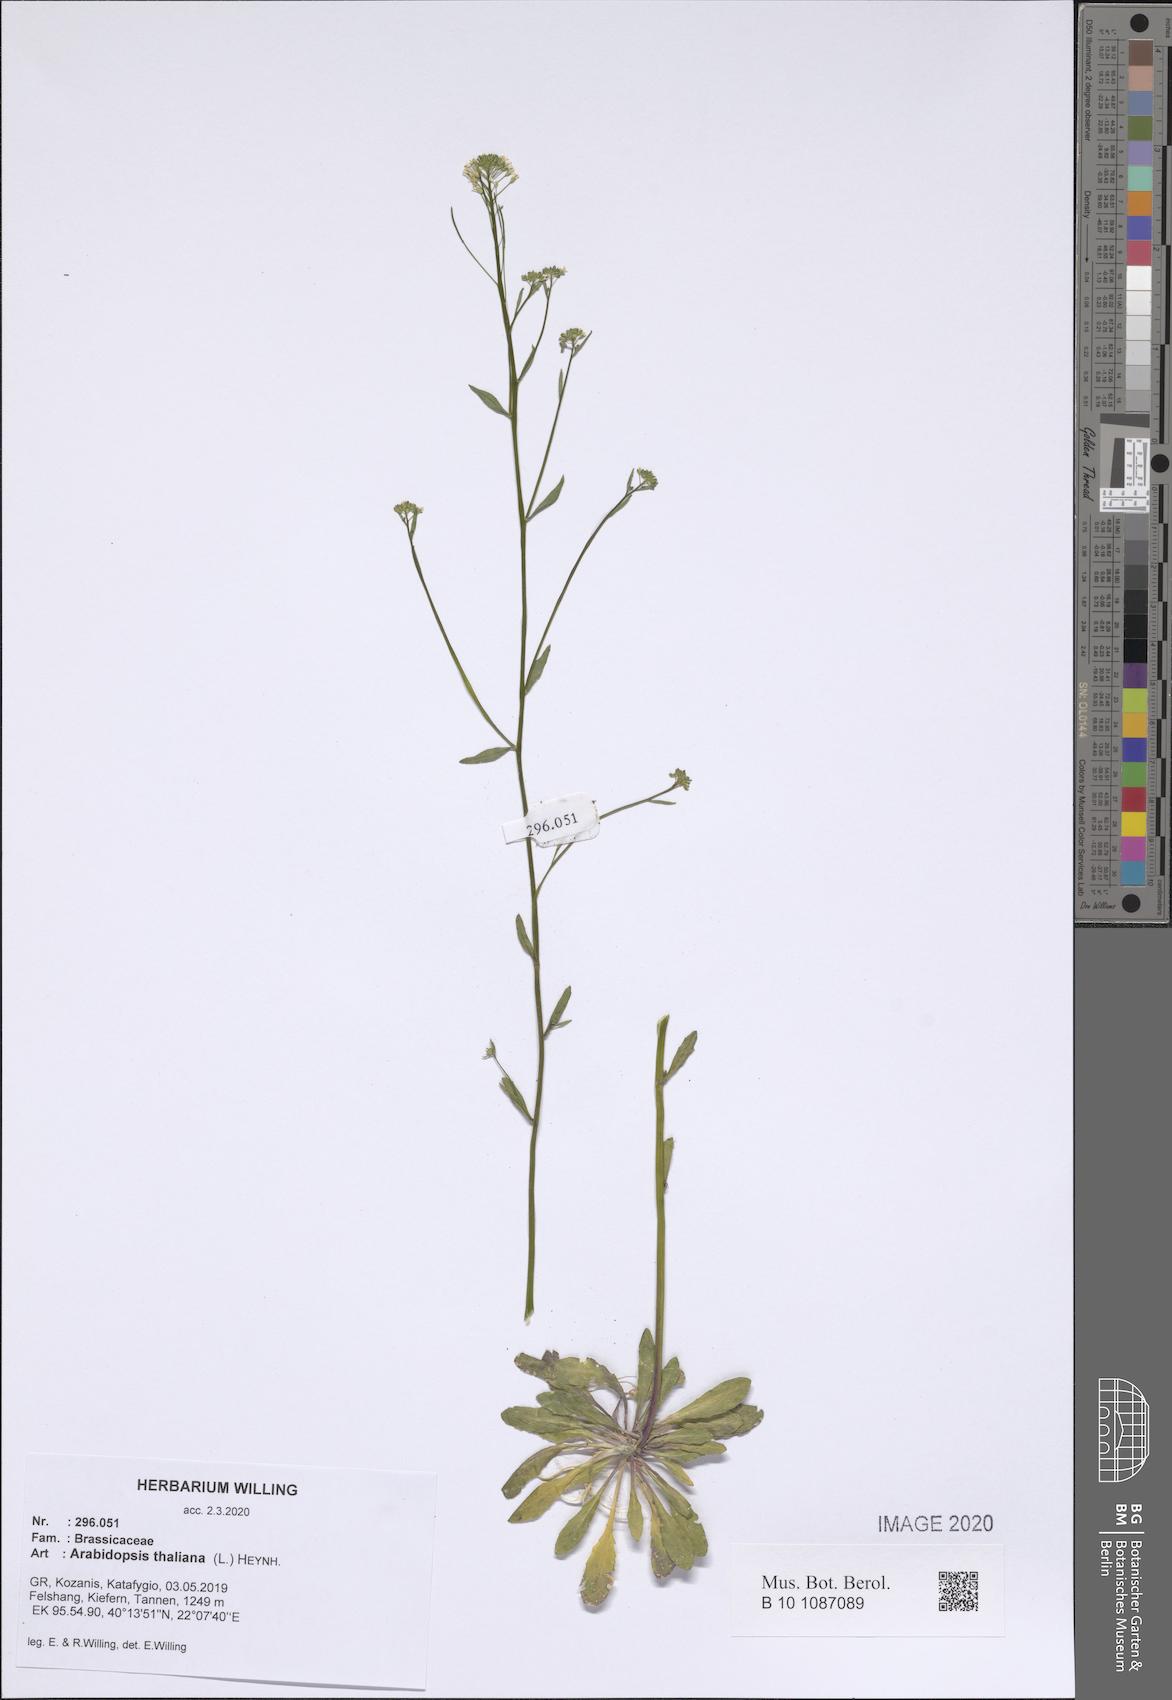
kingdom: Plantae
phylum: Tracheophyta
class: Magnoliopsida
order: Brassicales
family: Brassicaceae
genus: Arabidopsis
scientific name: Arabidopsis thaliana
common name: Thale cress
